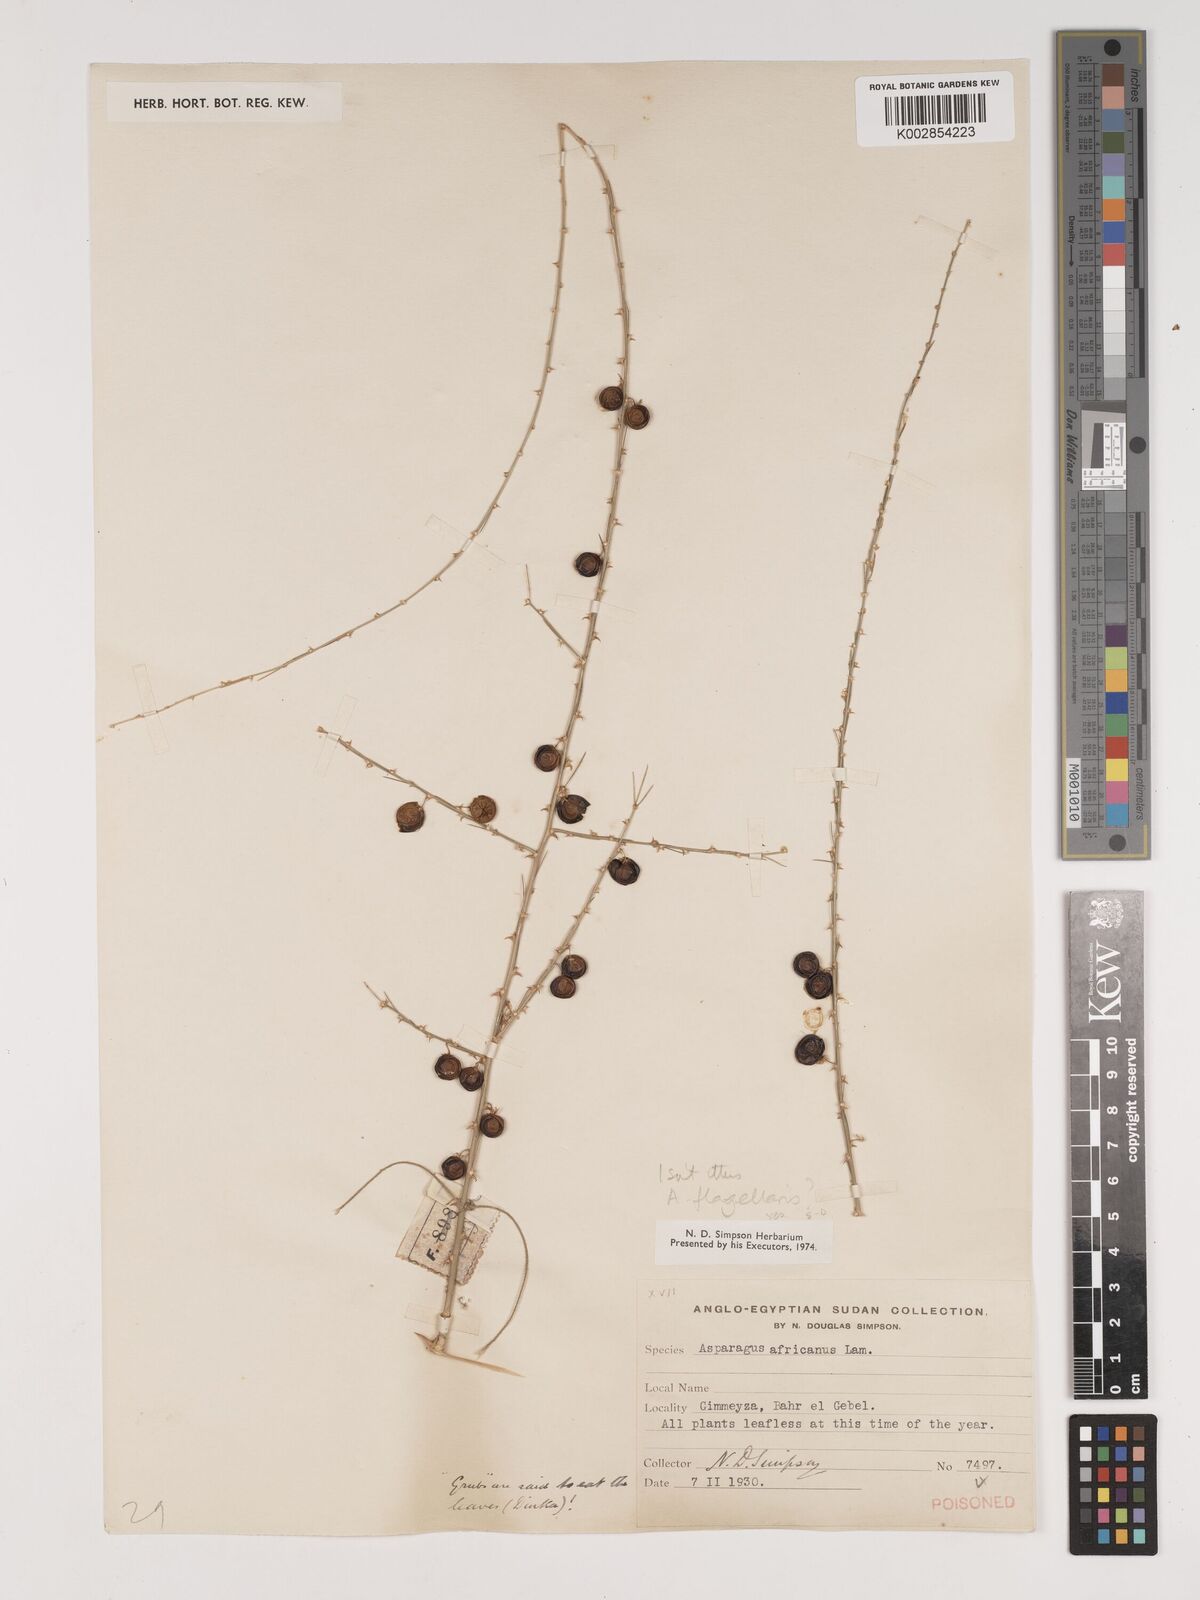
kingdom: Plantae
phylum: Tracheophyta
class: Liliopsida
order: Asparagales
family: Asparagaceae
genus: Asparagus
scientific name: Asparagus flagellaris
